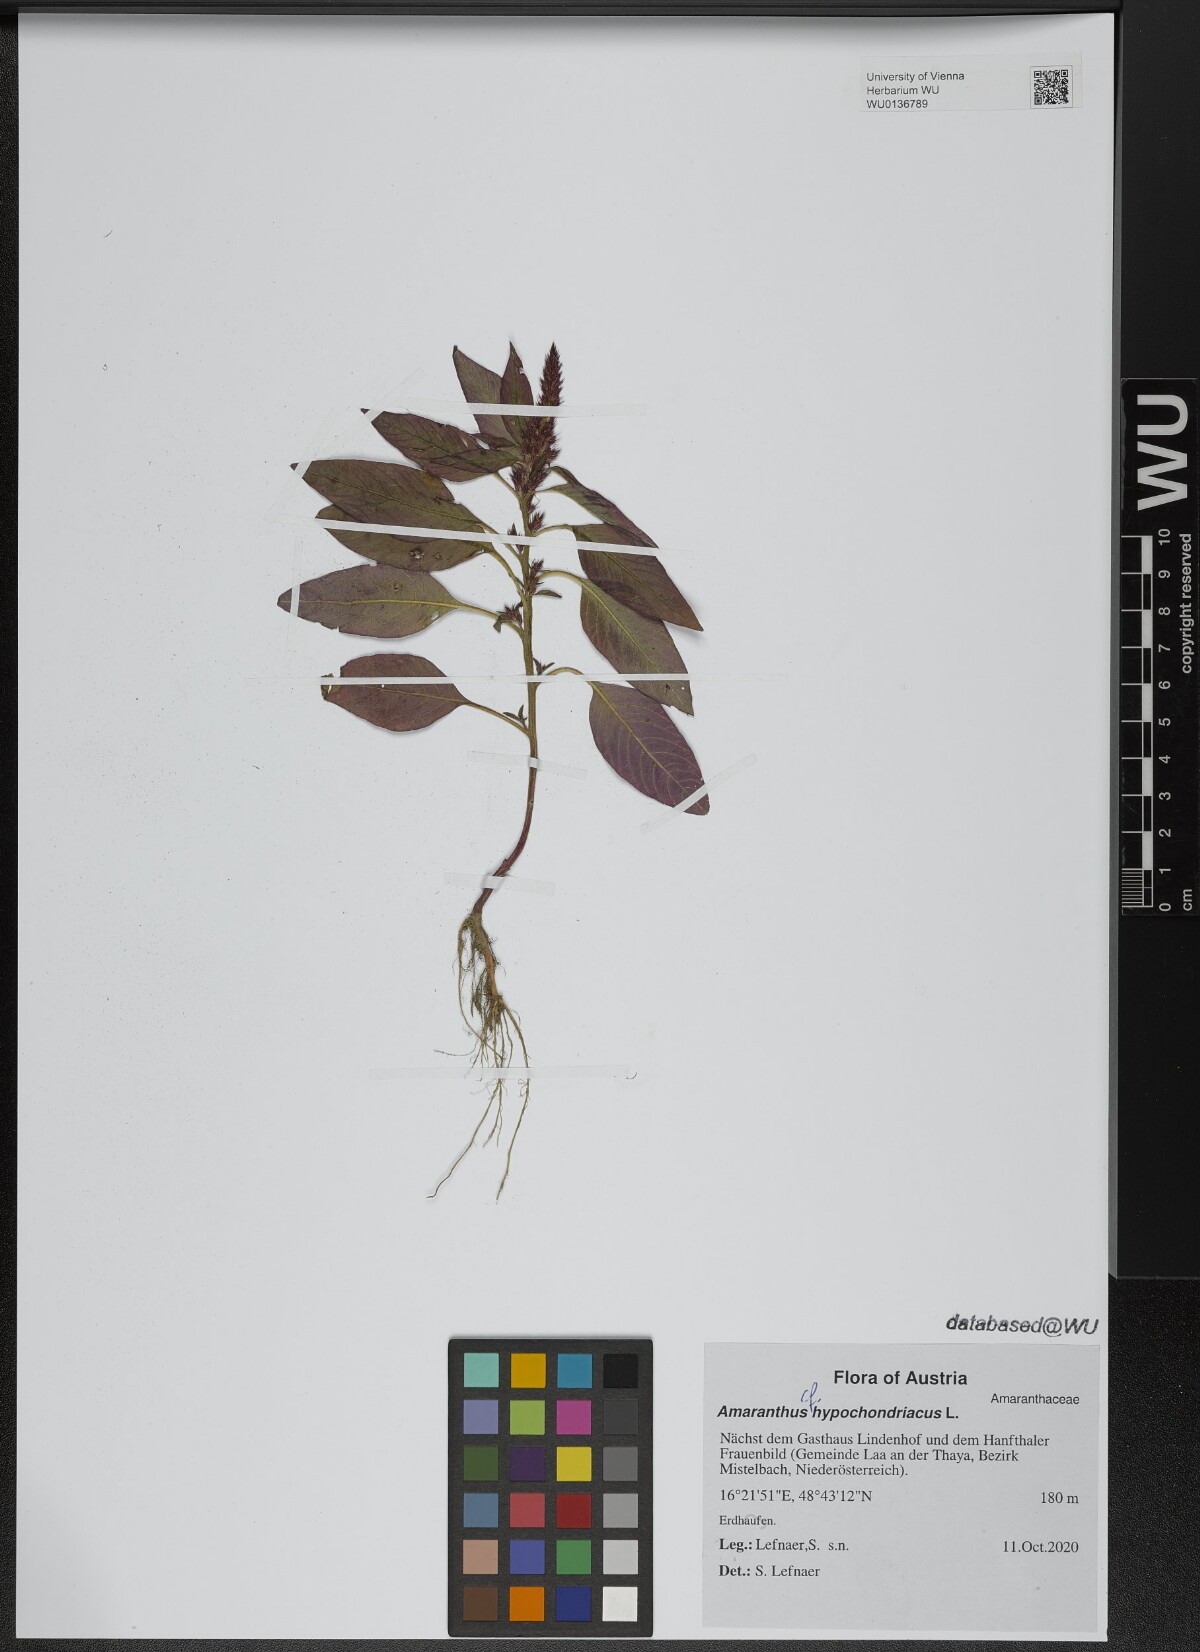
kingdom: Plantae
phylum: Tracheophyta
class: Magnoliopsida
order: Caryophyllales
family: Amaranthaceae
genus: Amaranthus
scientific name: Amaranthus hypochondriacus
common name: Prince's-feather
